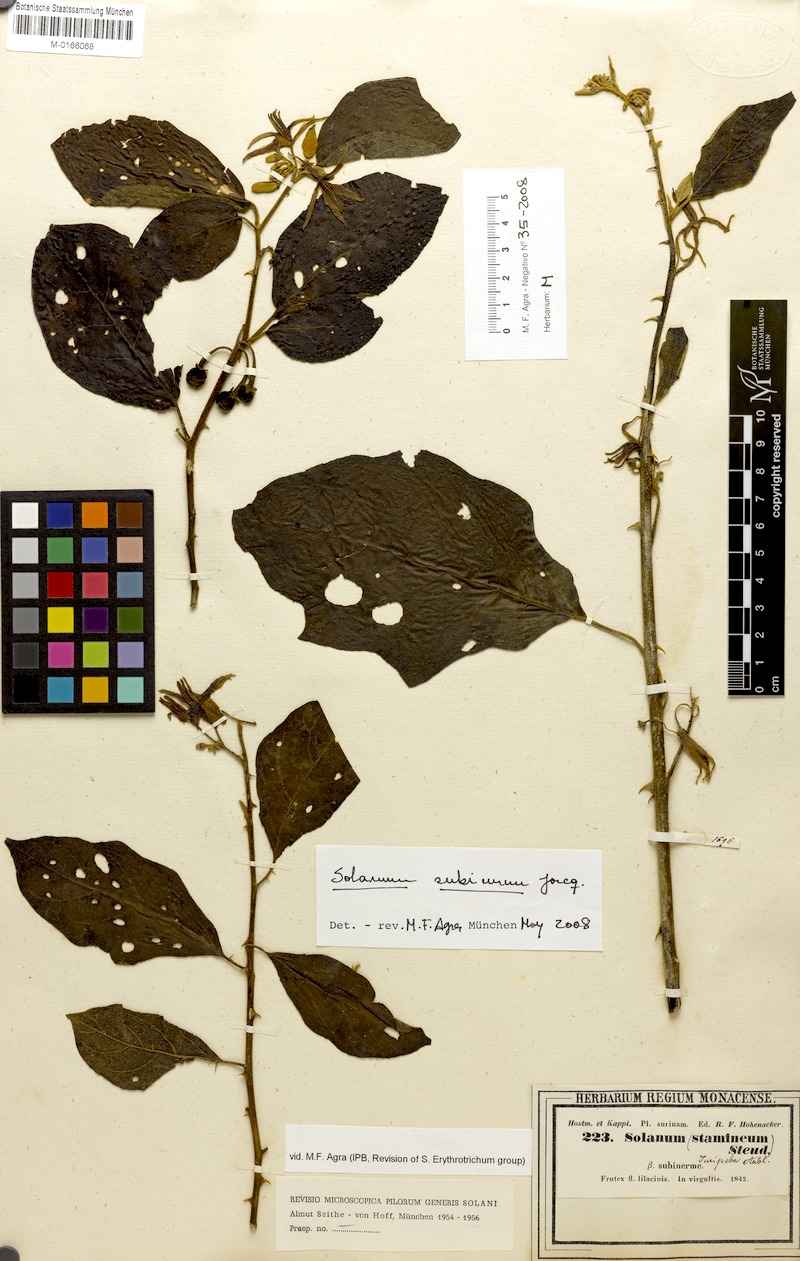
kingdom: Plantae
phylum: Tracheophyta
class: Magnoliopsida
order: Solanales
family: Solanaceae
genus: Solanum
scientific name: Solanum subinerme
